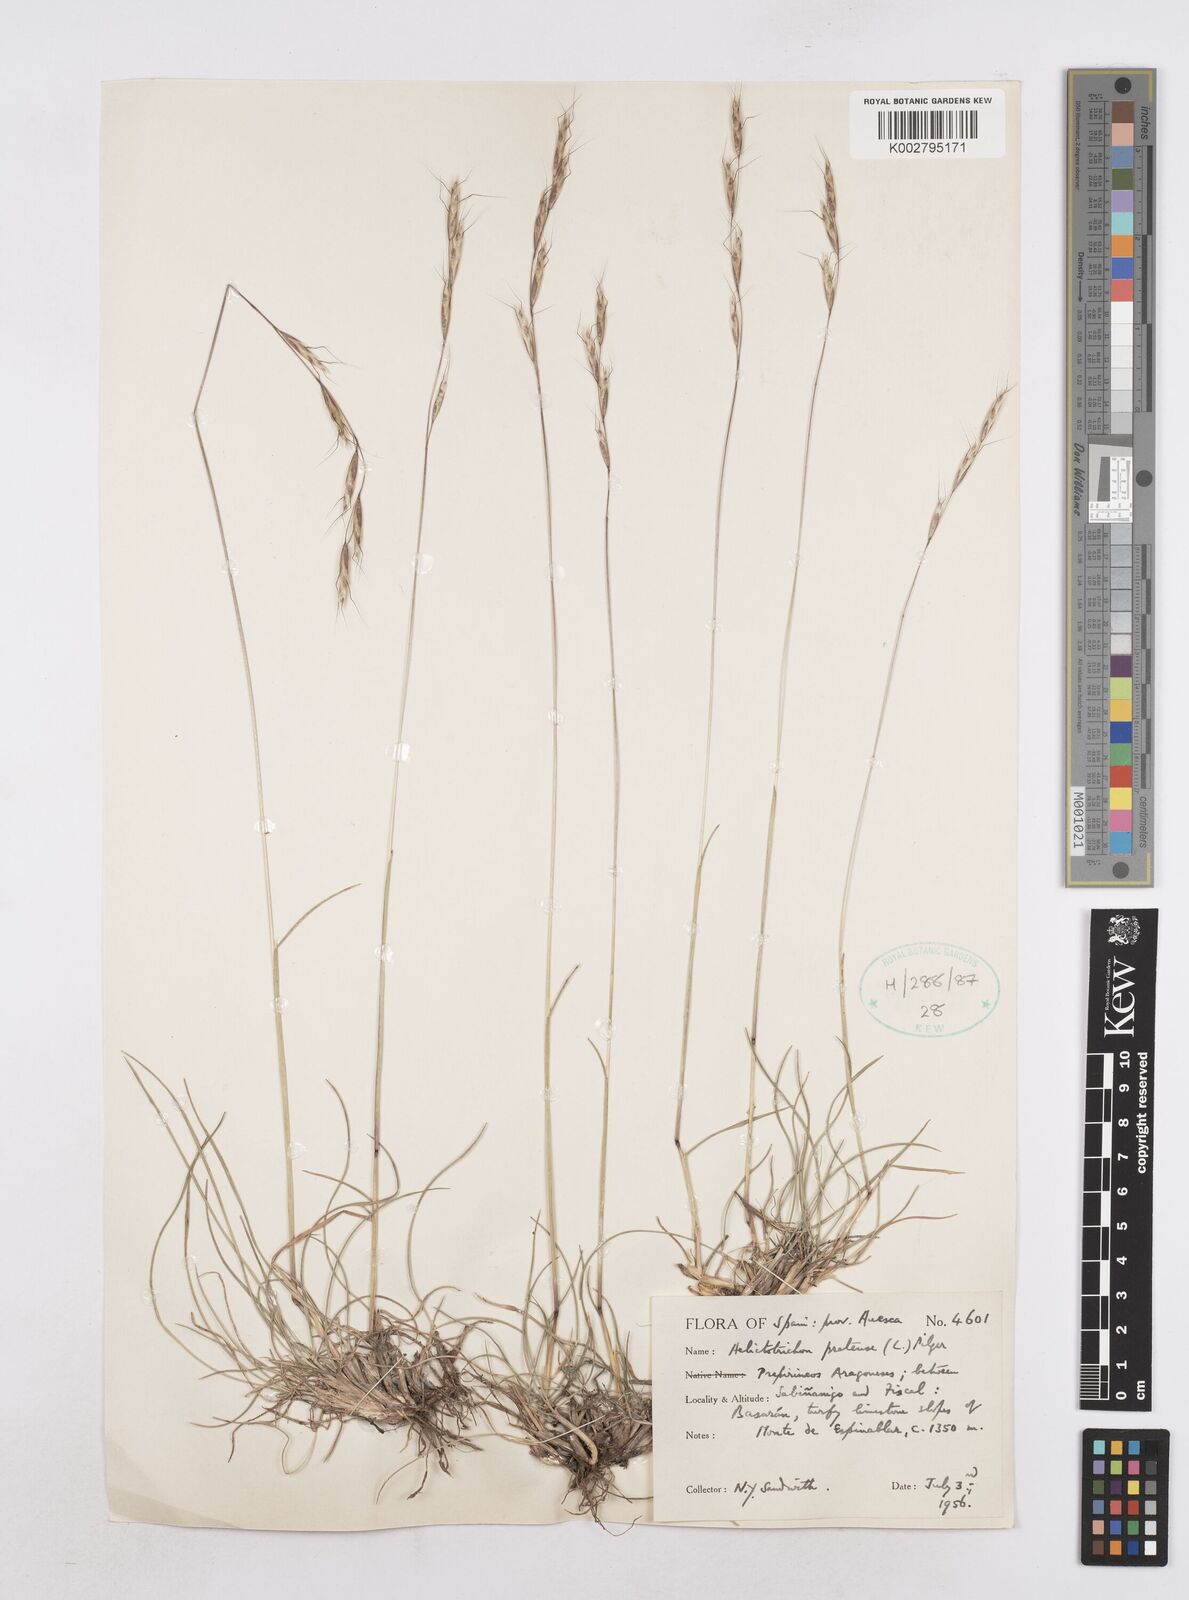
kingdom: Plantae
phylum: Tracheophyta
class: Liliopsida
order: Poales
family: Poaceae
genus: Helictochloa
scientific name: Helictochloa pratensis
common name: Meadow oat grass
